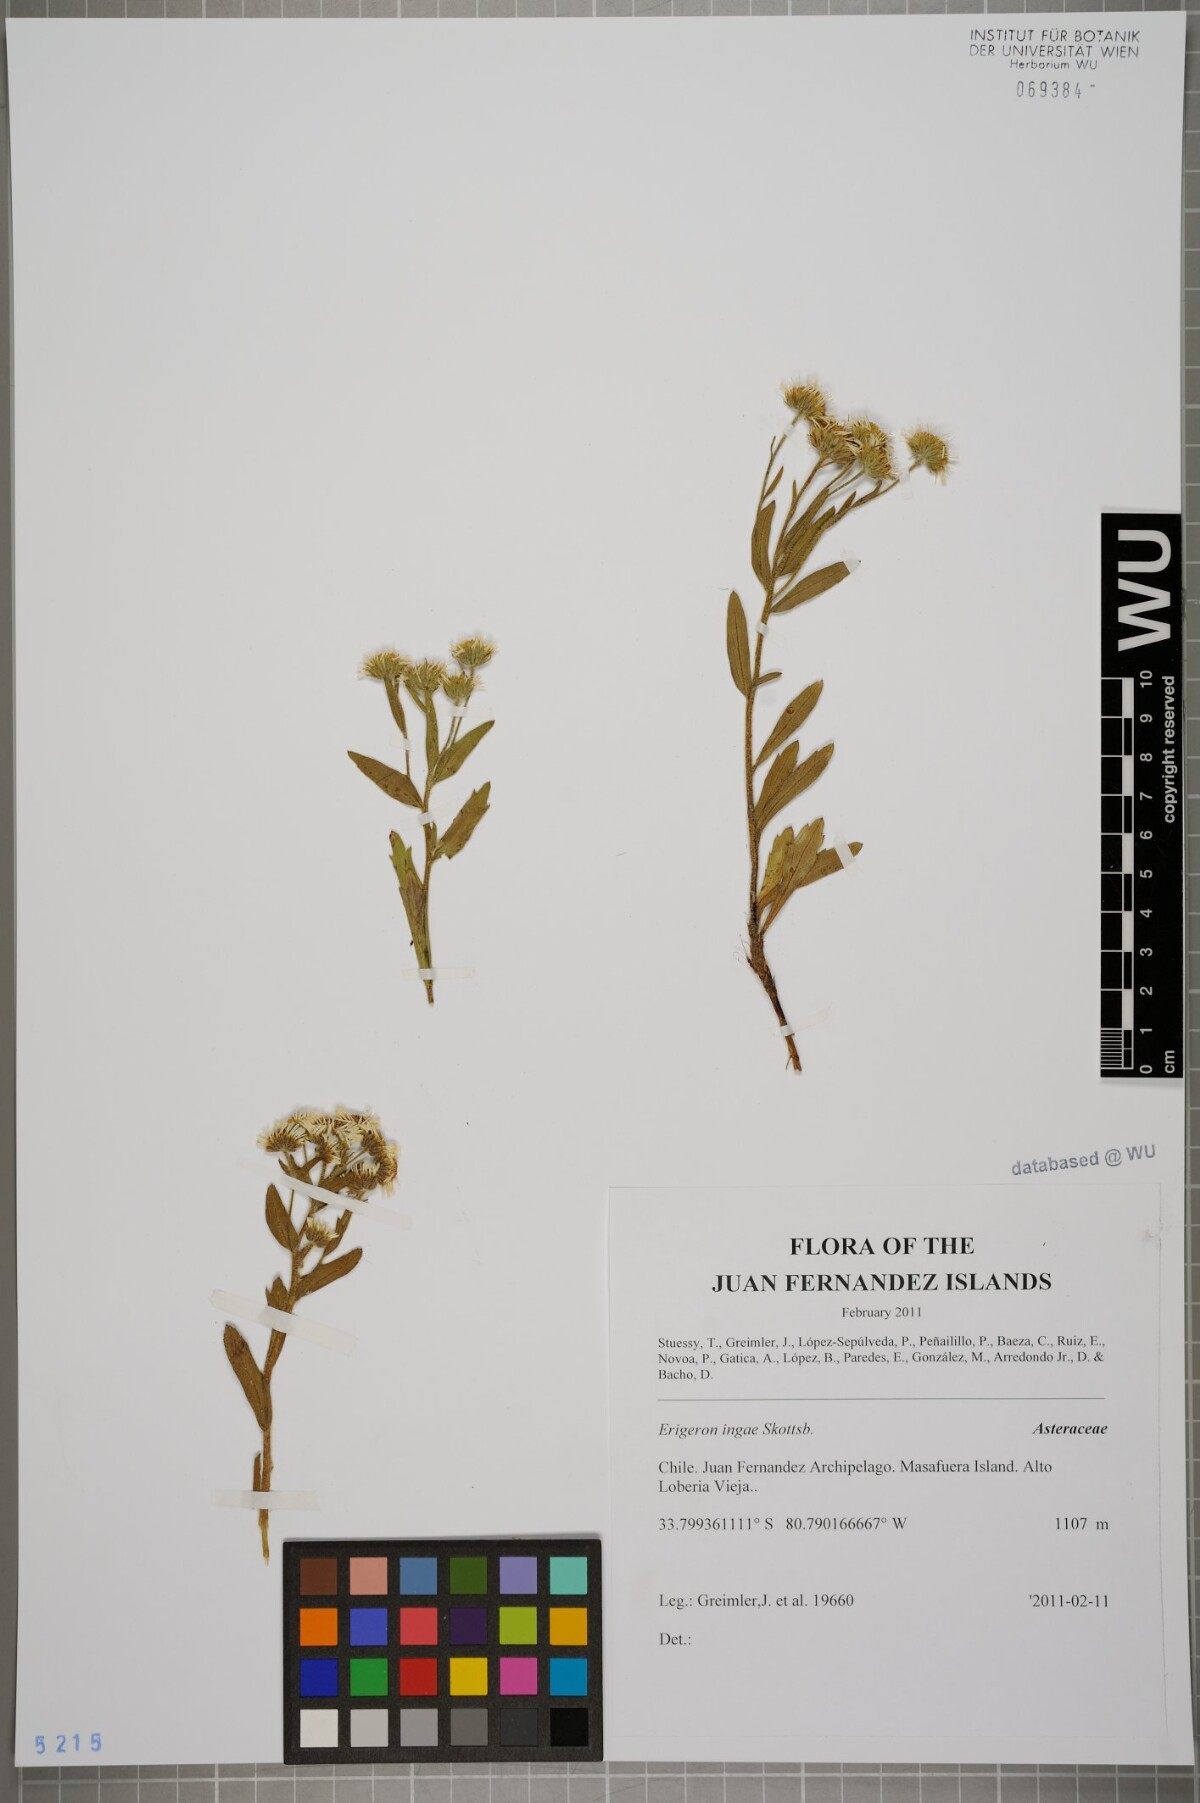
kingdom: Plantae
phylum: Tracheophyta
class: Magnoliopsida
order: Asterales
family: Asteraceae
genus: Erigeron
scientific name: Erigeron ingae
